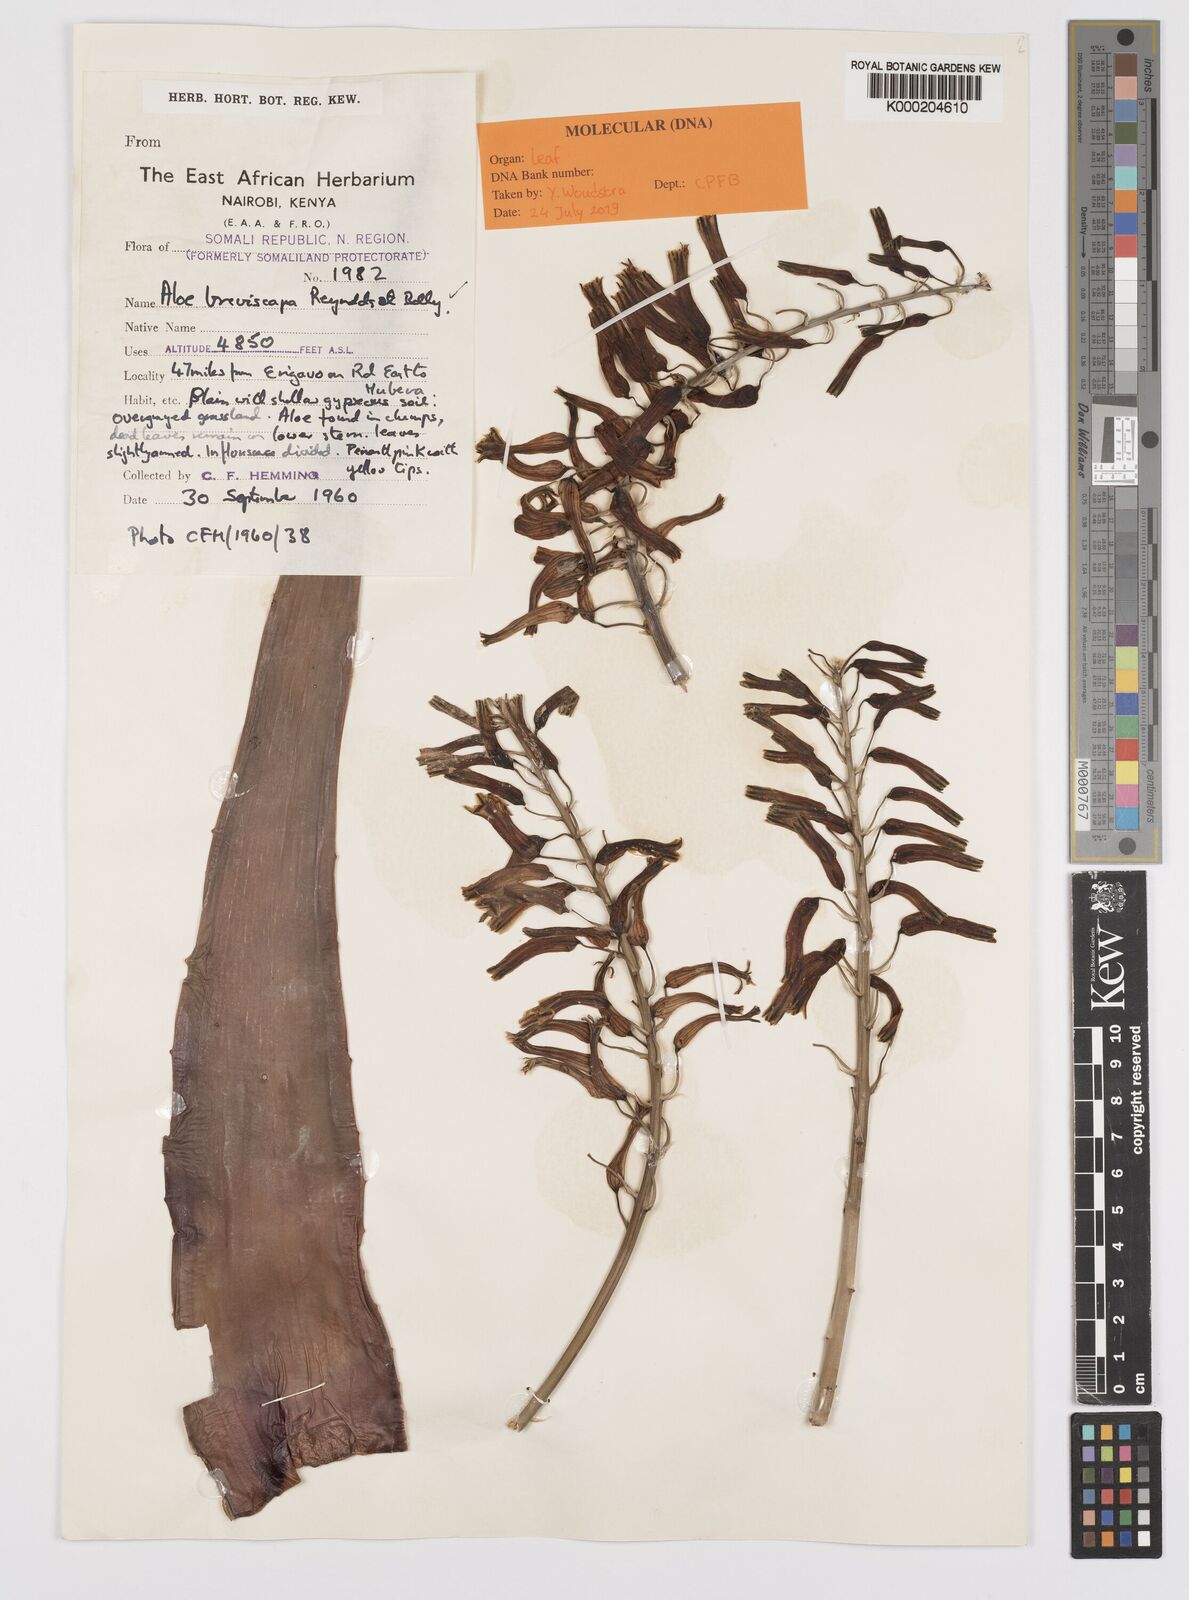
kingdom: Plantae
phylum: Tracheophyta
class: Liliopsida
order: Asparagales
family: Asphodelaceae
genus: Aloe
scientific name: Aloe breviscapa
